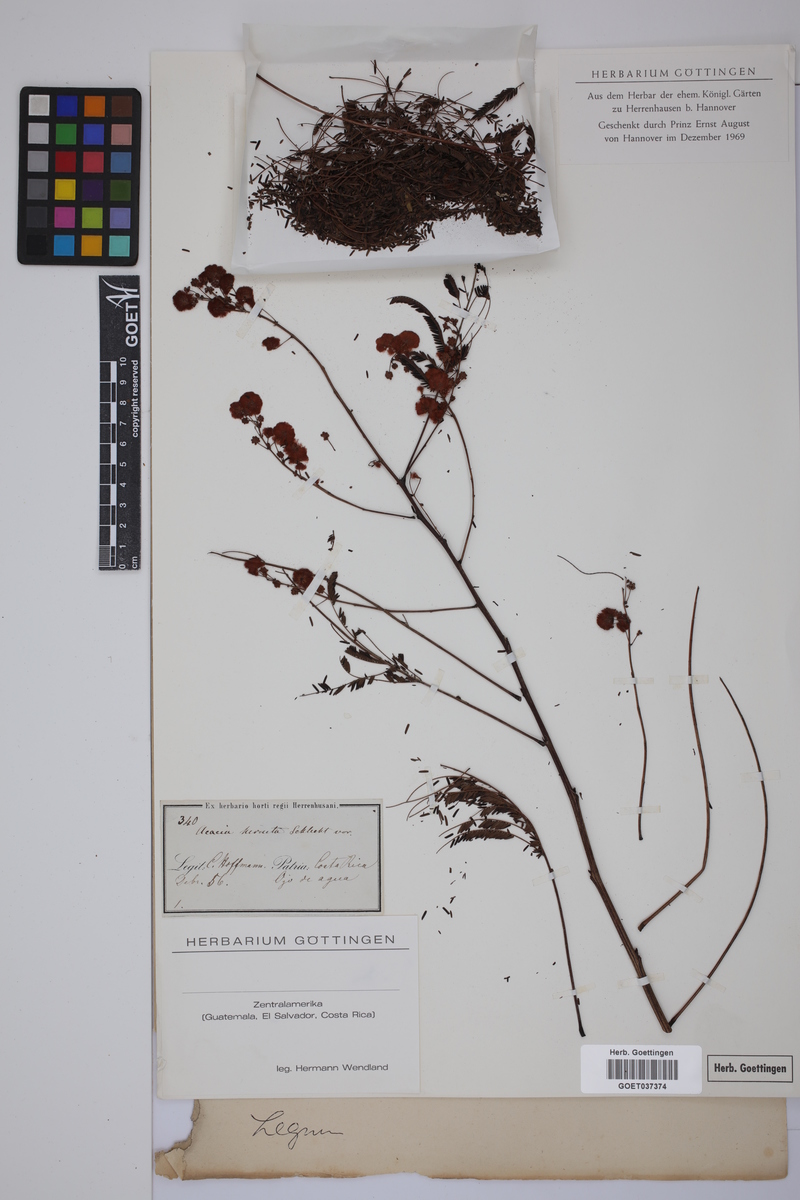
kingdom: Plantae
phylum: Tracheophyta
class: Magnoliopsida
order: Fabales
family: Fabaceae
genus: Acaciella
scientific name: Acaciella angustissima
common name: Prairie acacia
